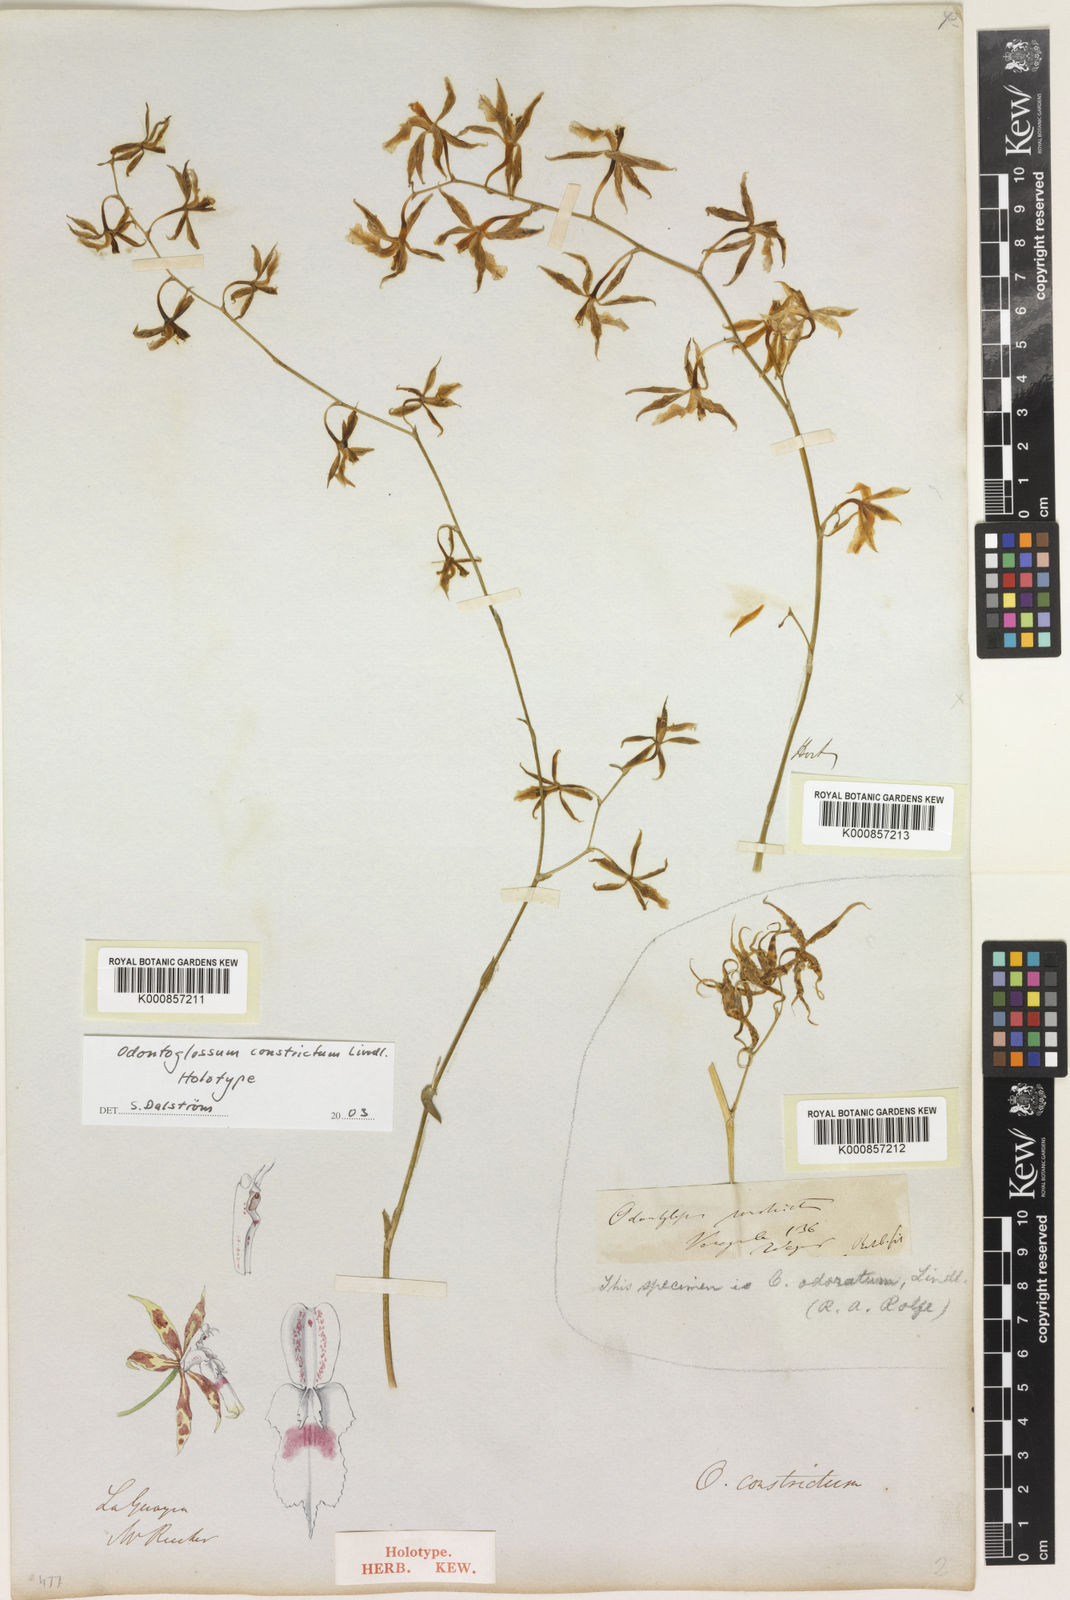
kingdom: Plantae
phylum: Tracheophyta
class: Liliopsida
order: Asparagales
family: Orchidaceae
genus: Oncidium
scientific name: Oncidium constrictum
